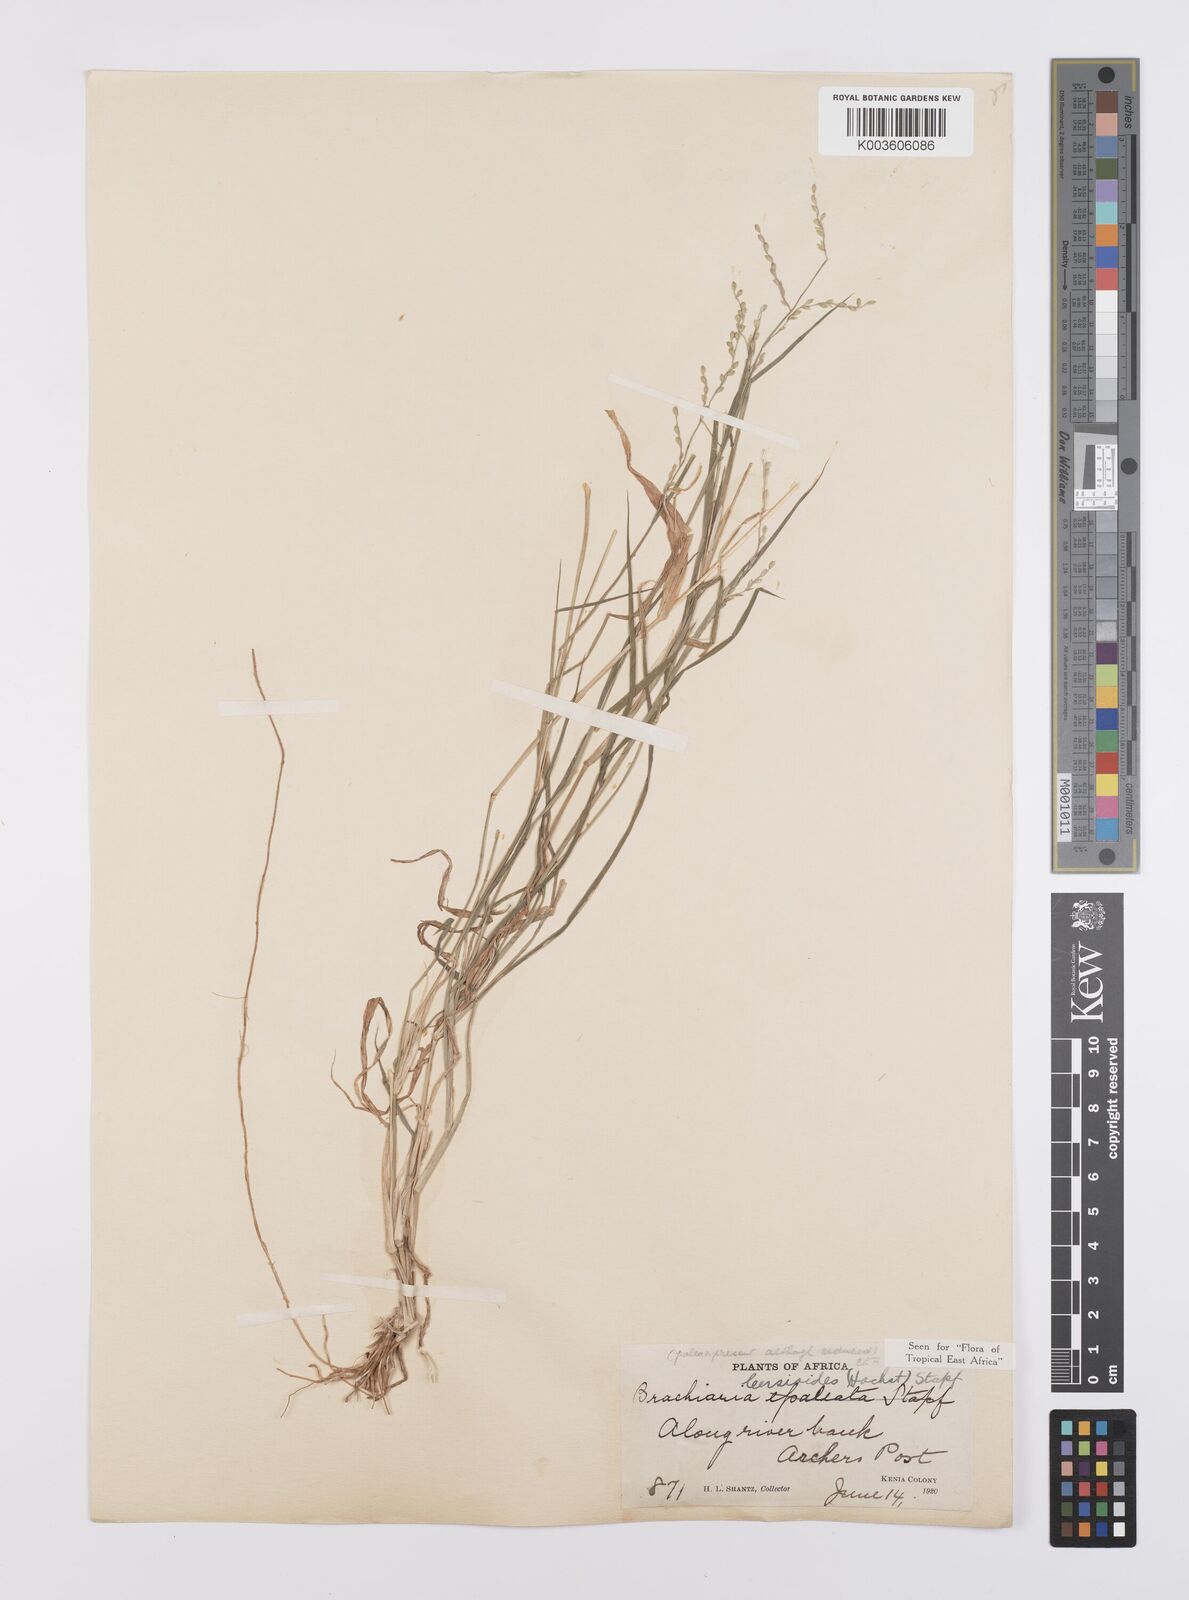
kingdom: Plantae
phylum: Tracheophyta
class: Liliopsida
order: Poales
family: Poaceae
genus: Urochloa
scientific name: Urochloa leersioides
